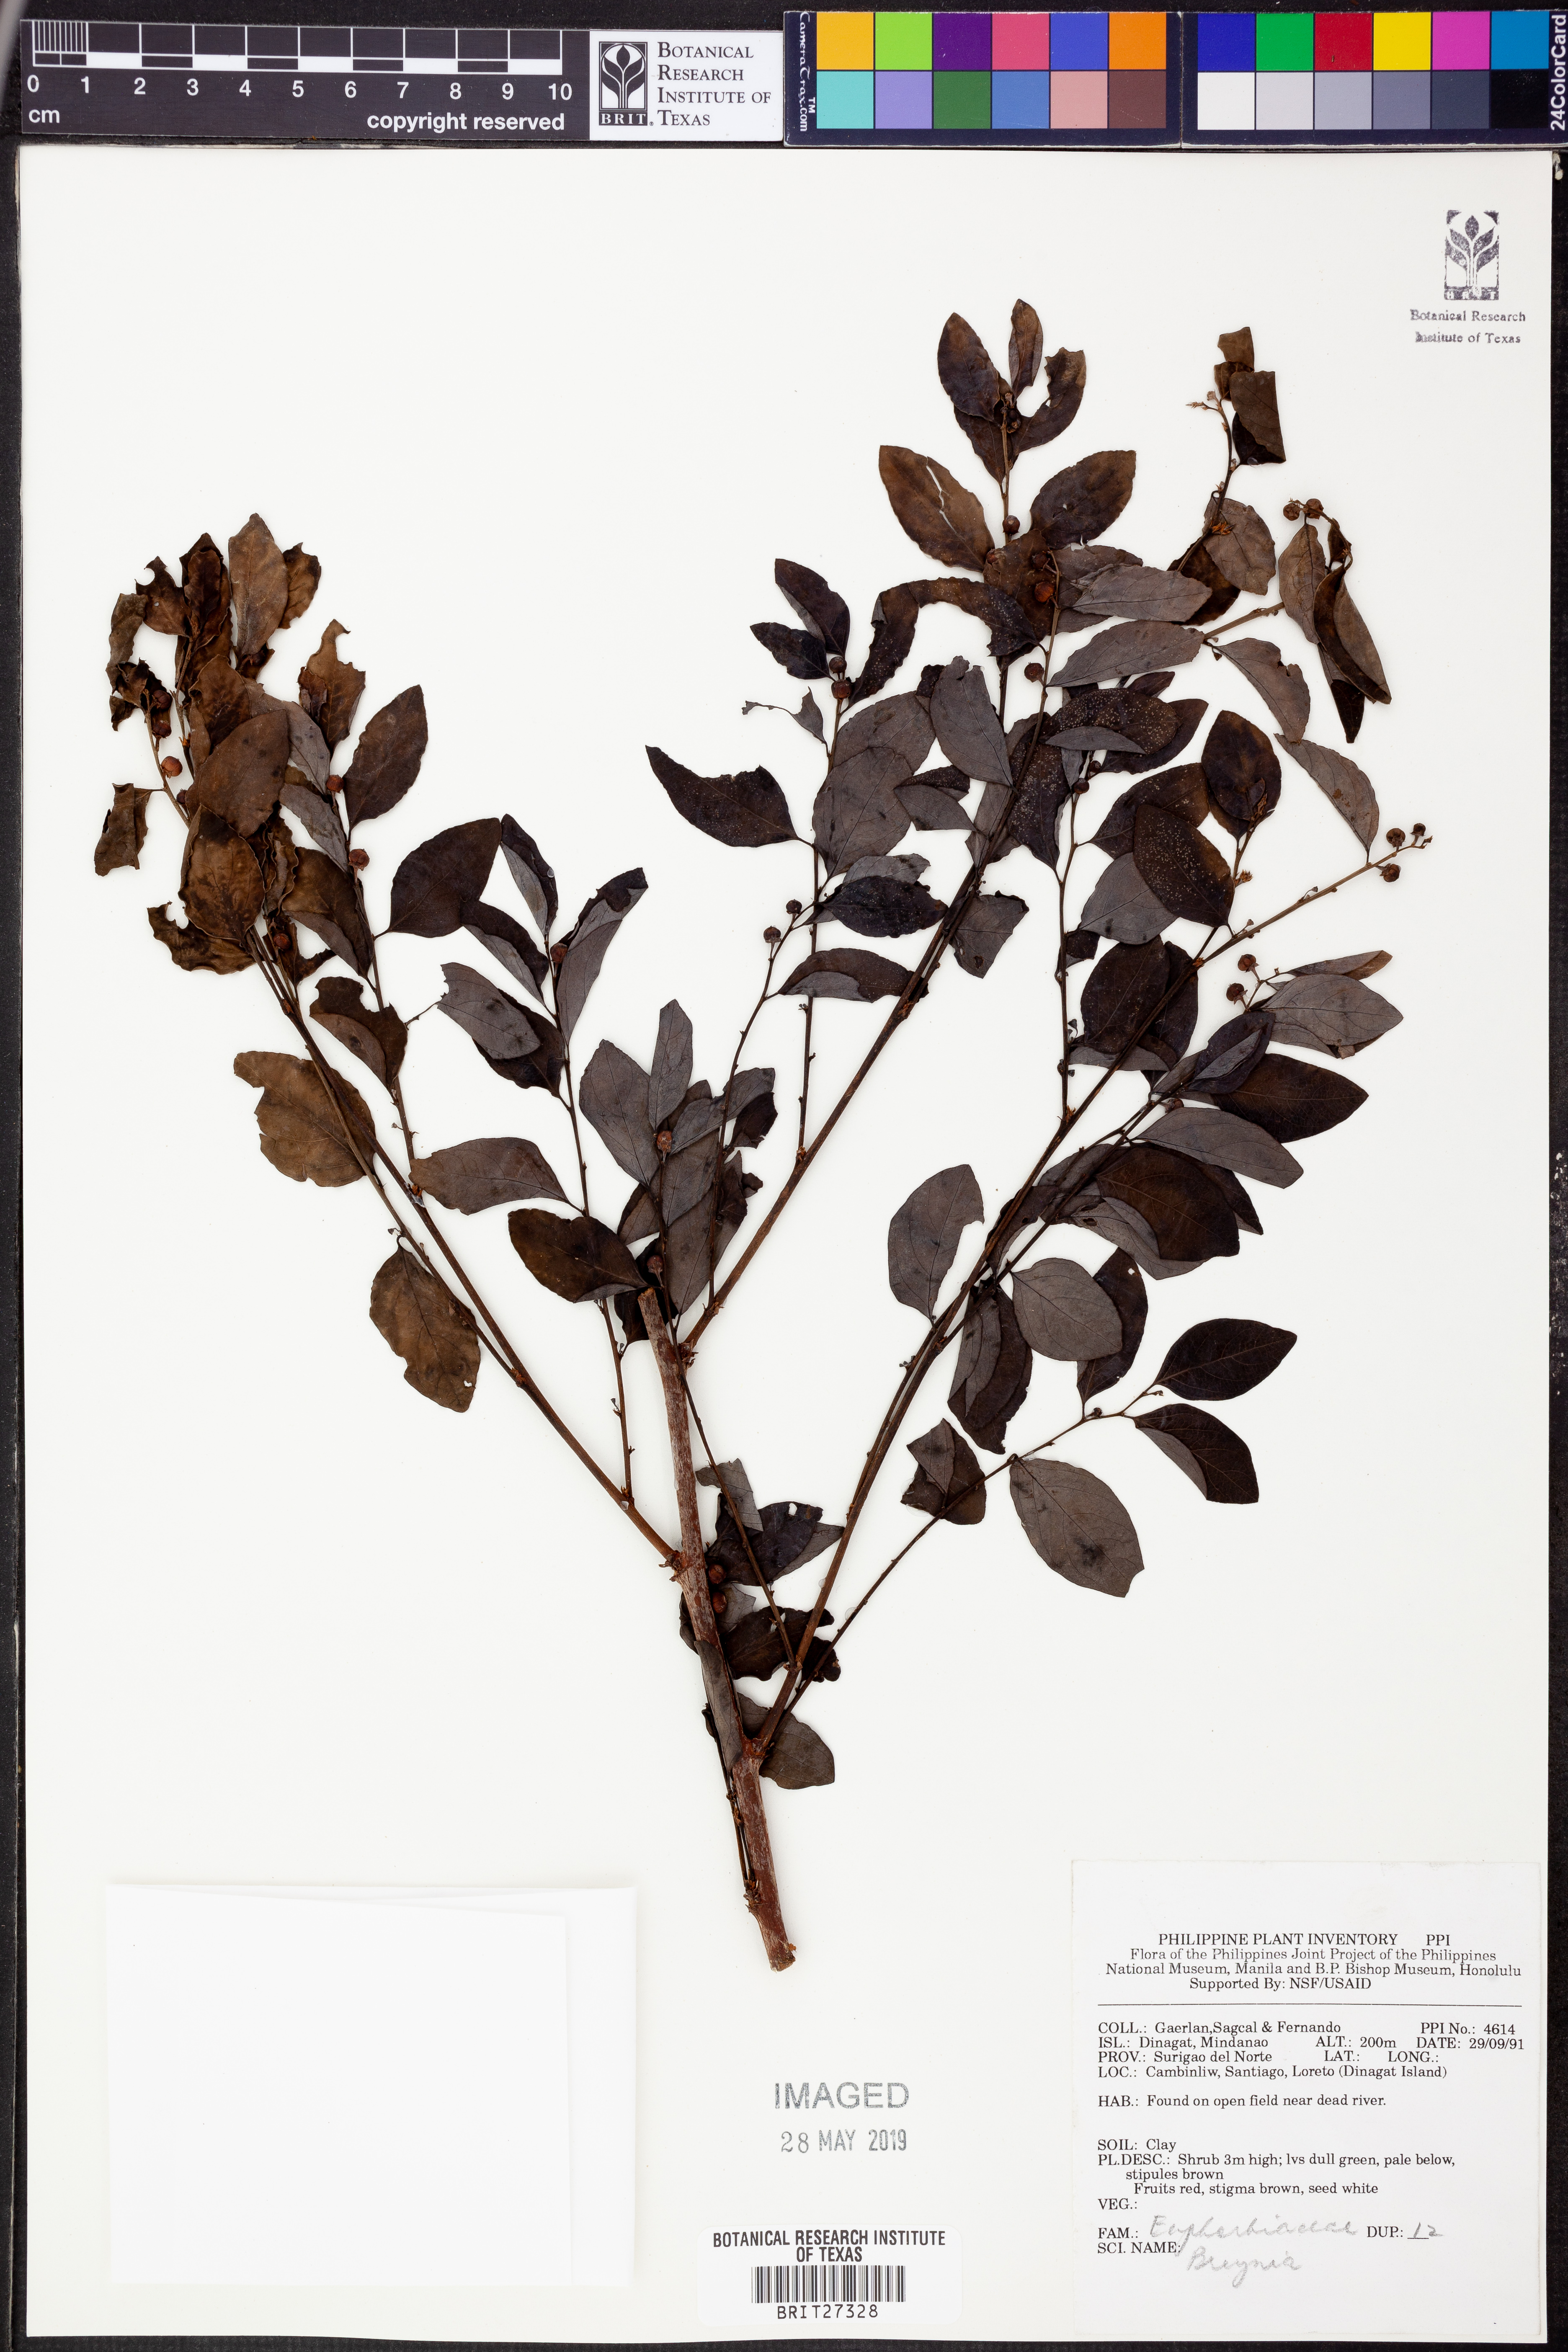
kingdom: Plantae
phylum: Tracheophyta
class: Magnoliopsida
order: Malpighiales
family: Phyllanthaceae
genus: Breynia
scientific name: Breynia
